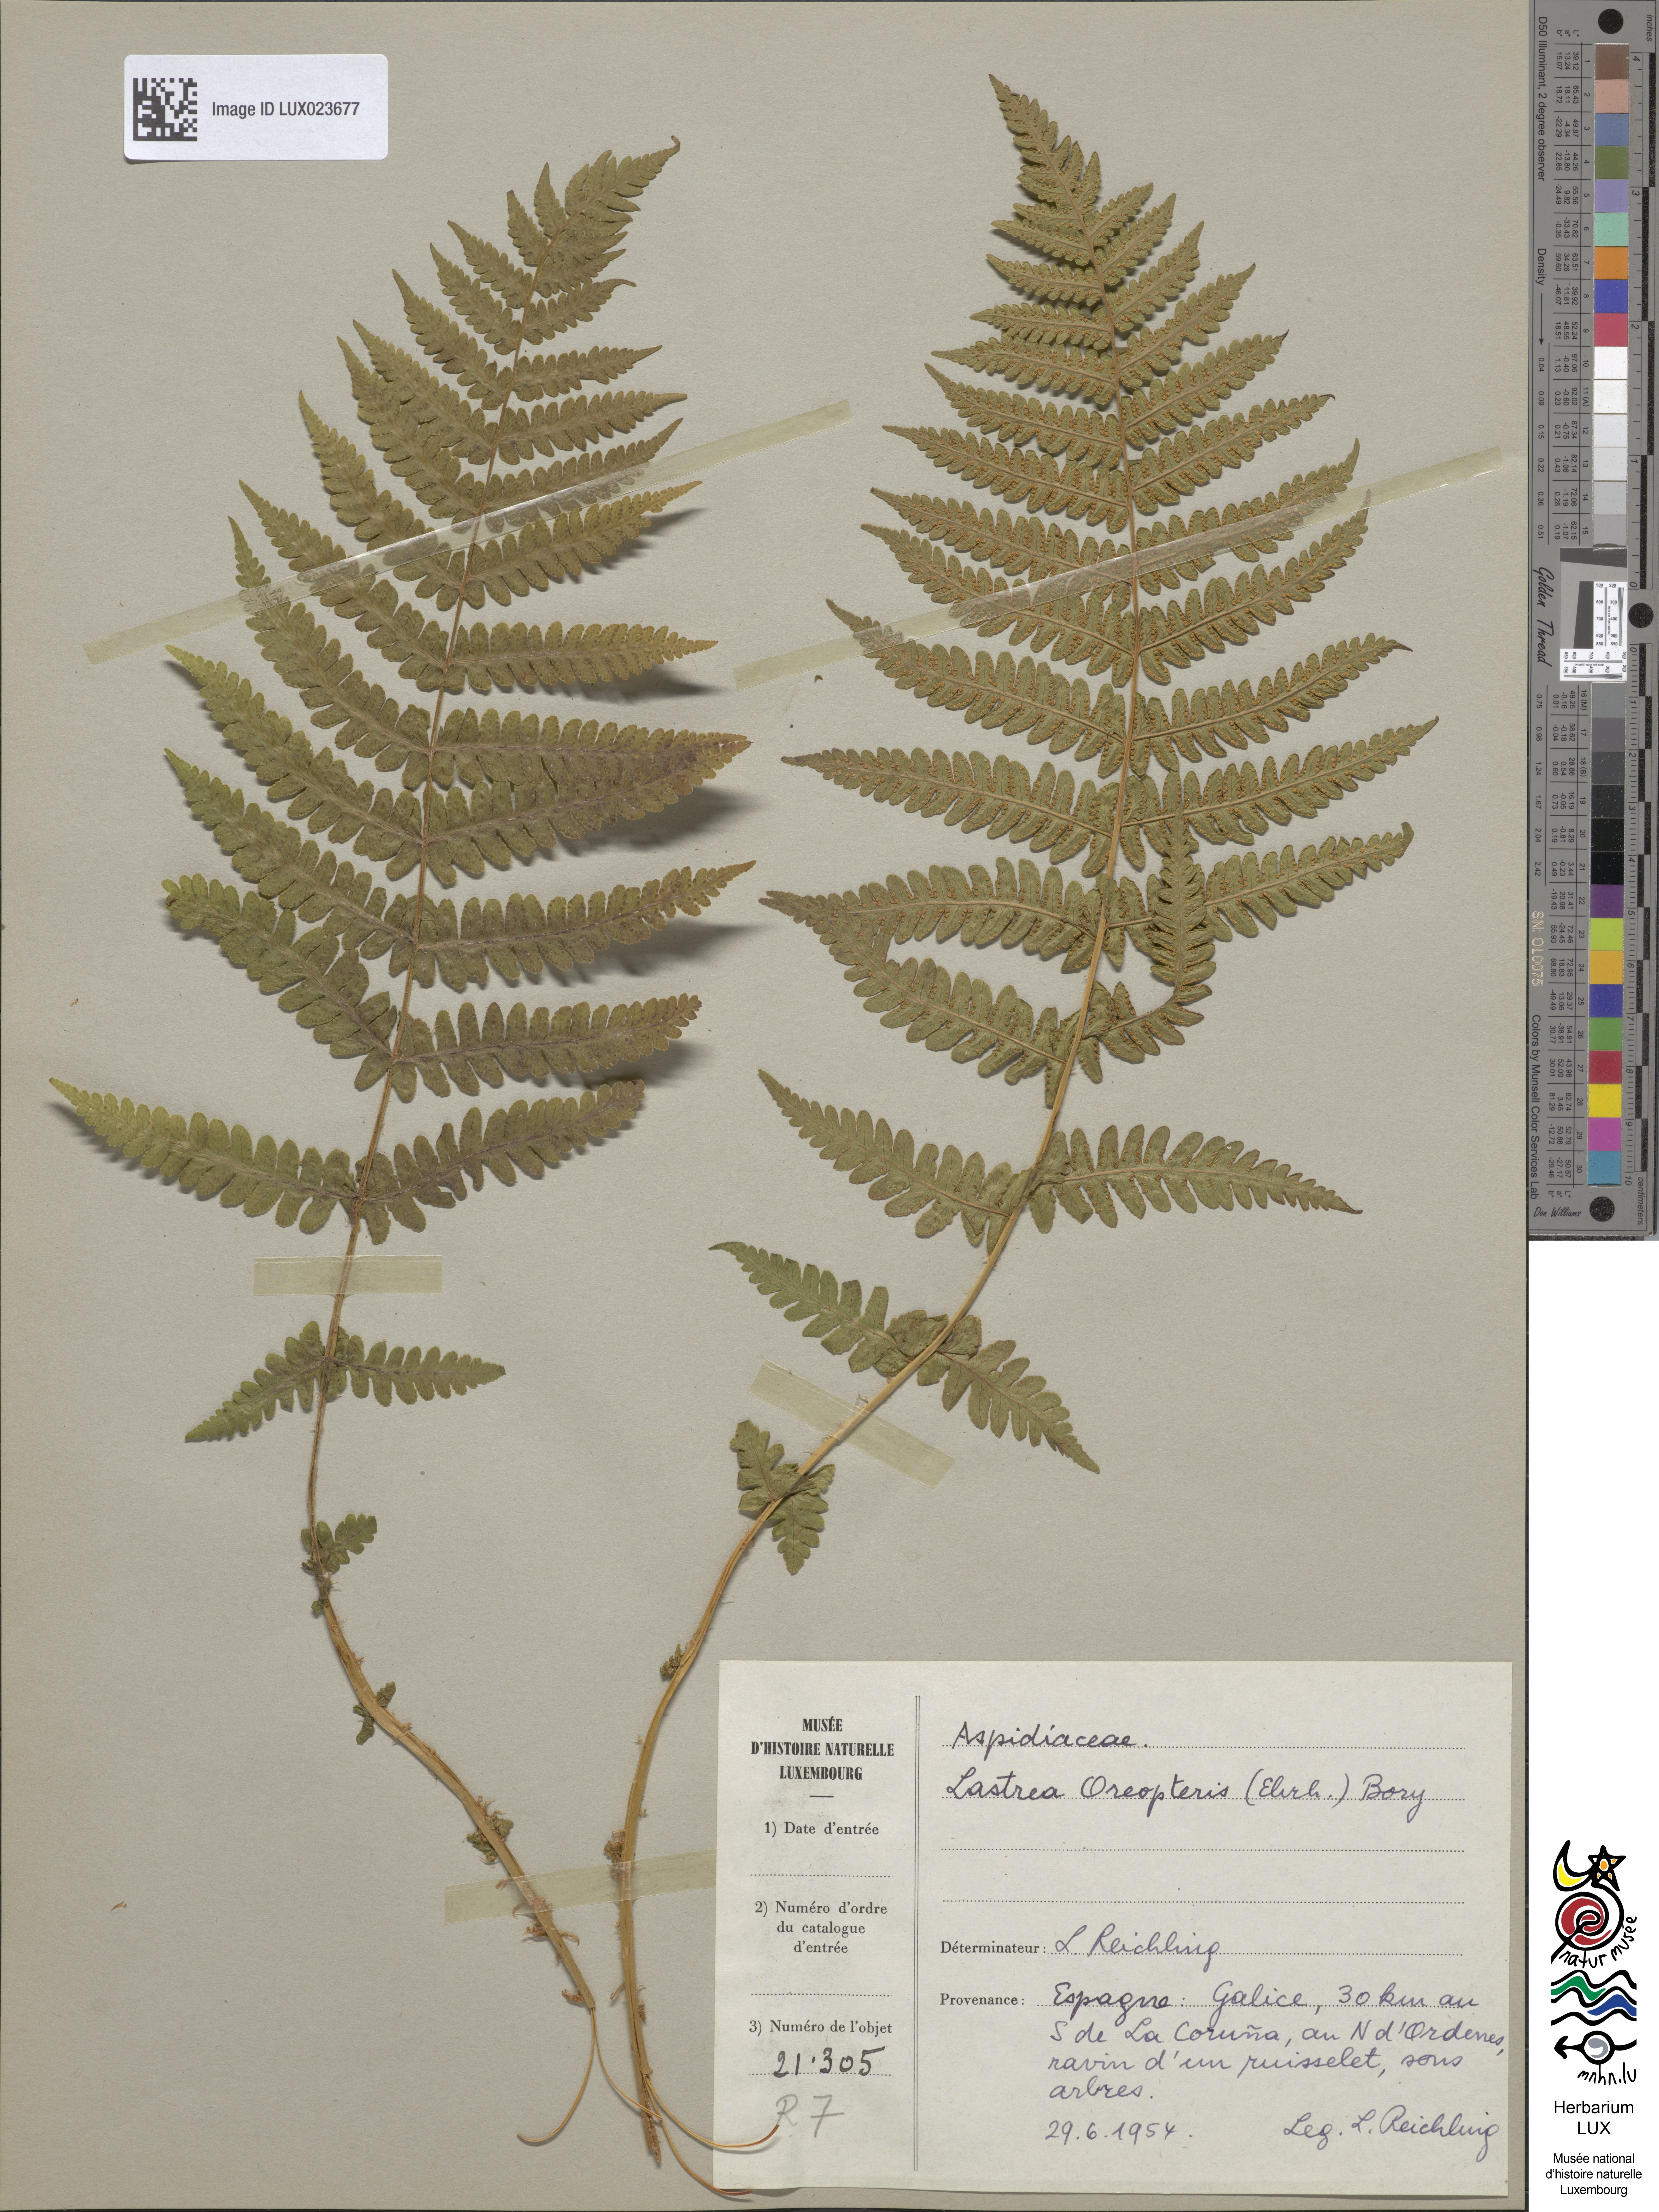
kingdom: Plantae
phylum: Tracheophyta
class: Polypodiopsida
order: Polypodiales
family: Thelypteridaceae
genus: Oreopteris
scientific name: Oreopteris limbosperma
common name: Lemon-scented fern
